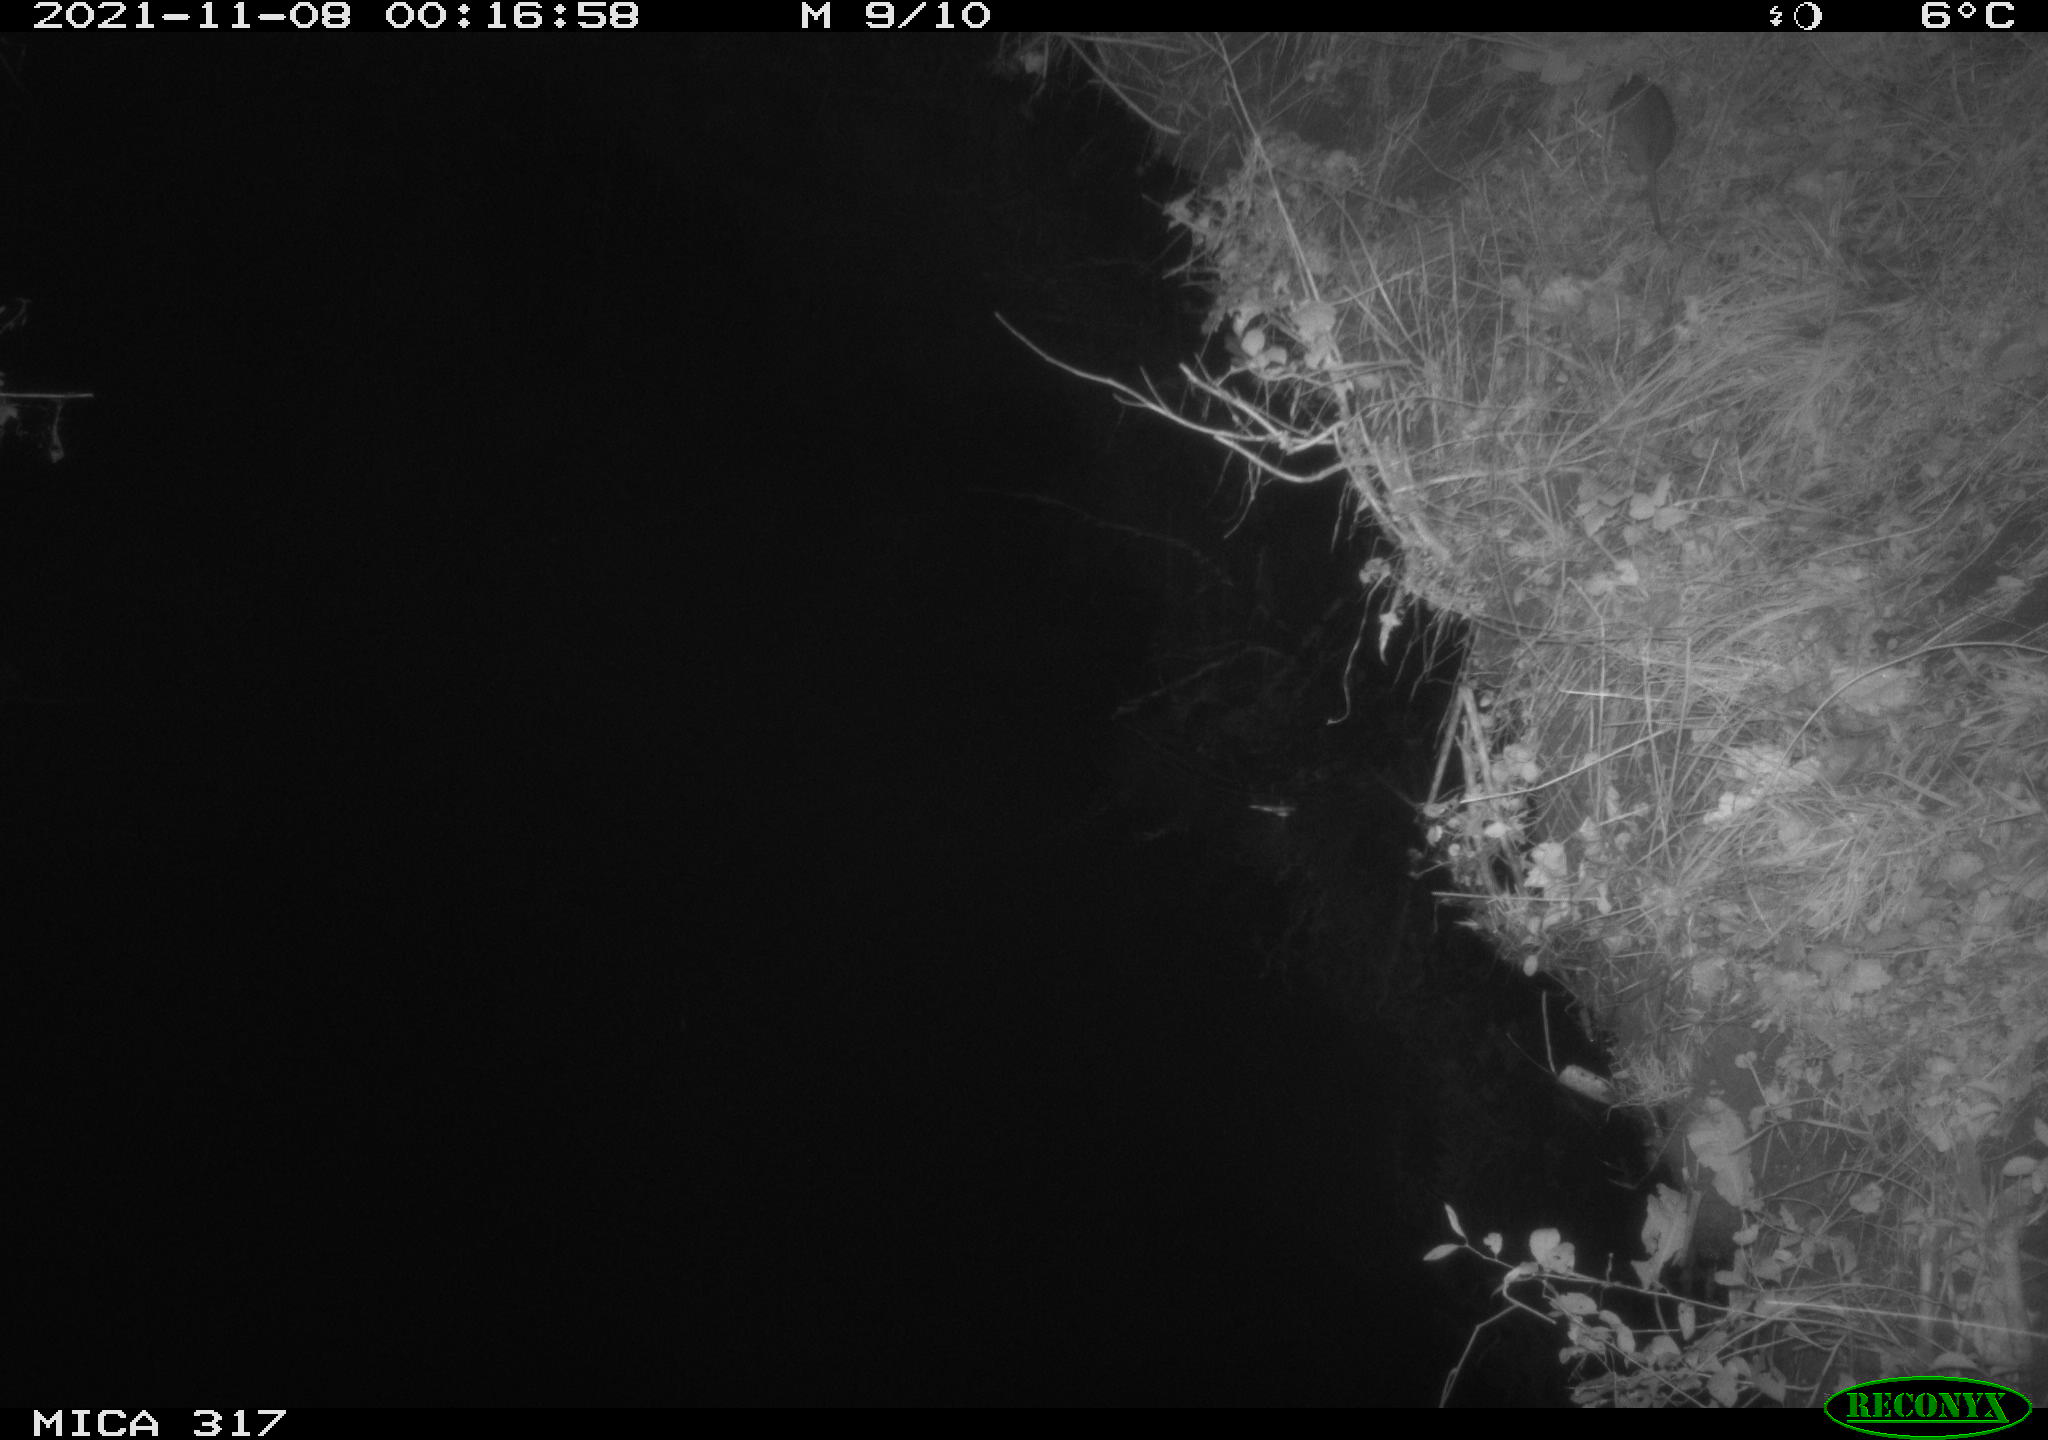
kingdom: Animalia
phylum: Chordata
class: Mammalia
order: Rodentia
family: Muridae
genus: Rattus
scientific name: Rattus norvegicus
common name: Brown rat
